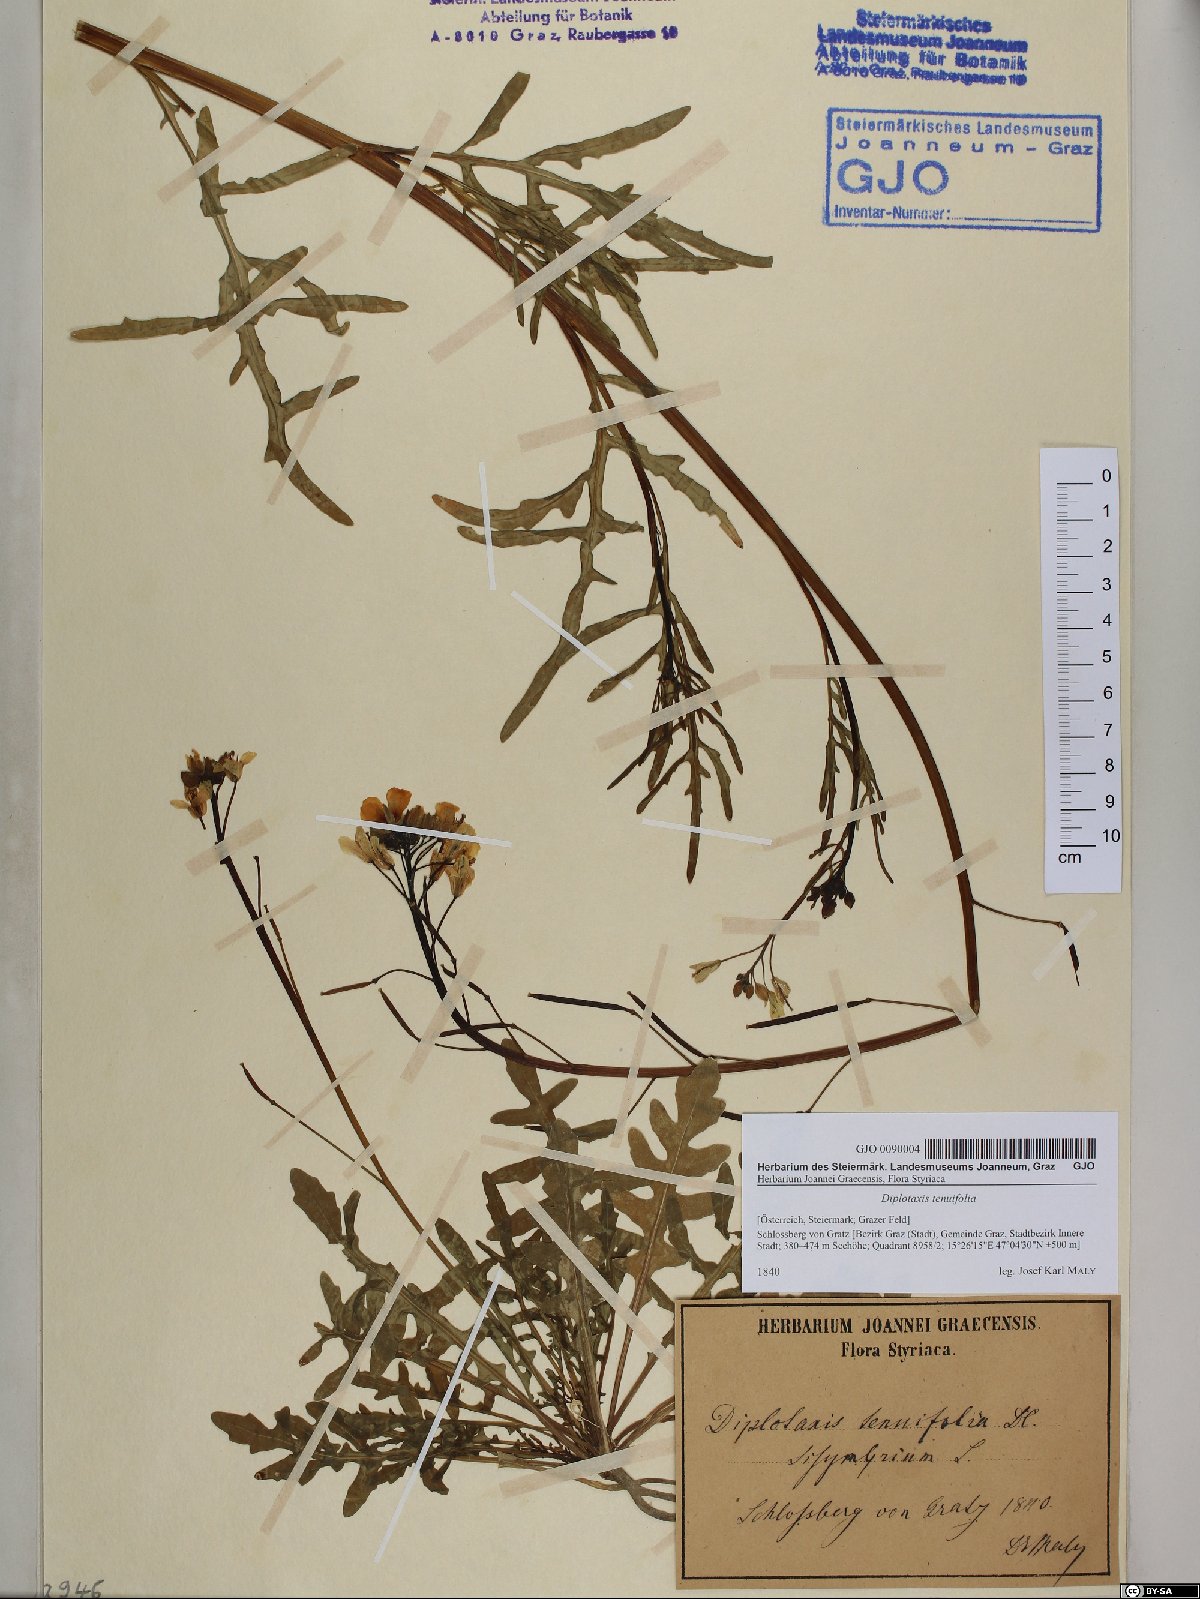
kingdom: Plantae
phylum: Tracheophyta
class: Magnoliopsida
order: Brassicales
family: Brassicaceae
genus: Diplotaxis
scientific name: Diplotaxis tenuifolia
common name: Perennial wall-rocket
